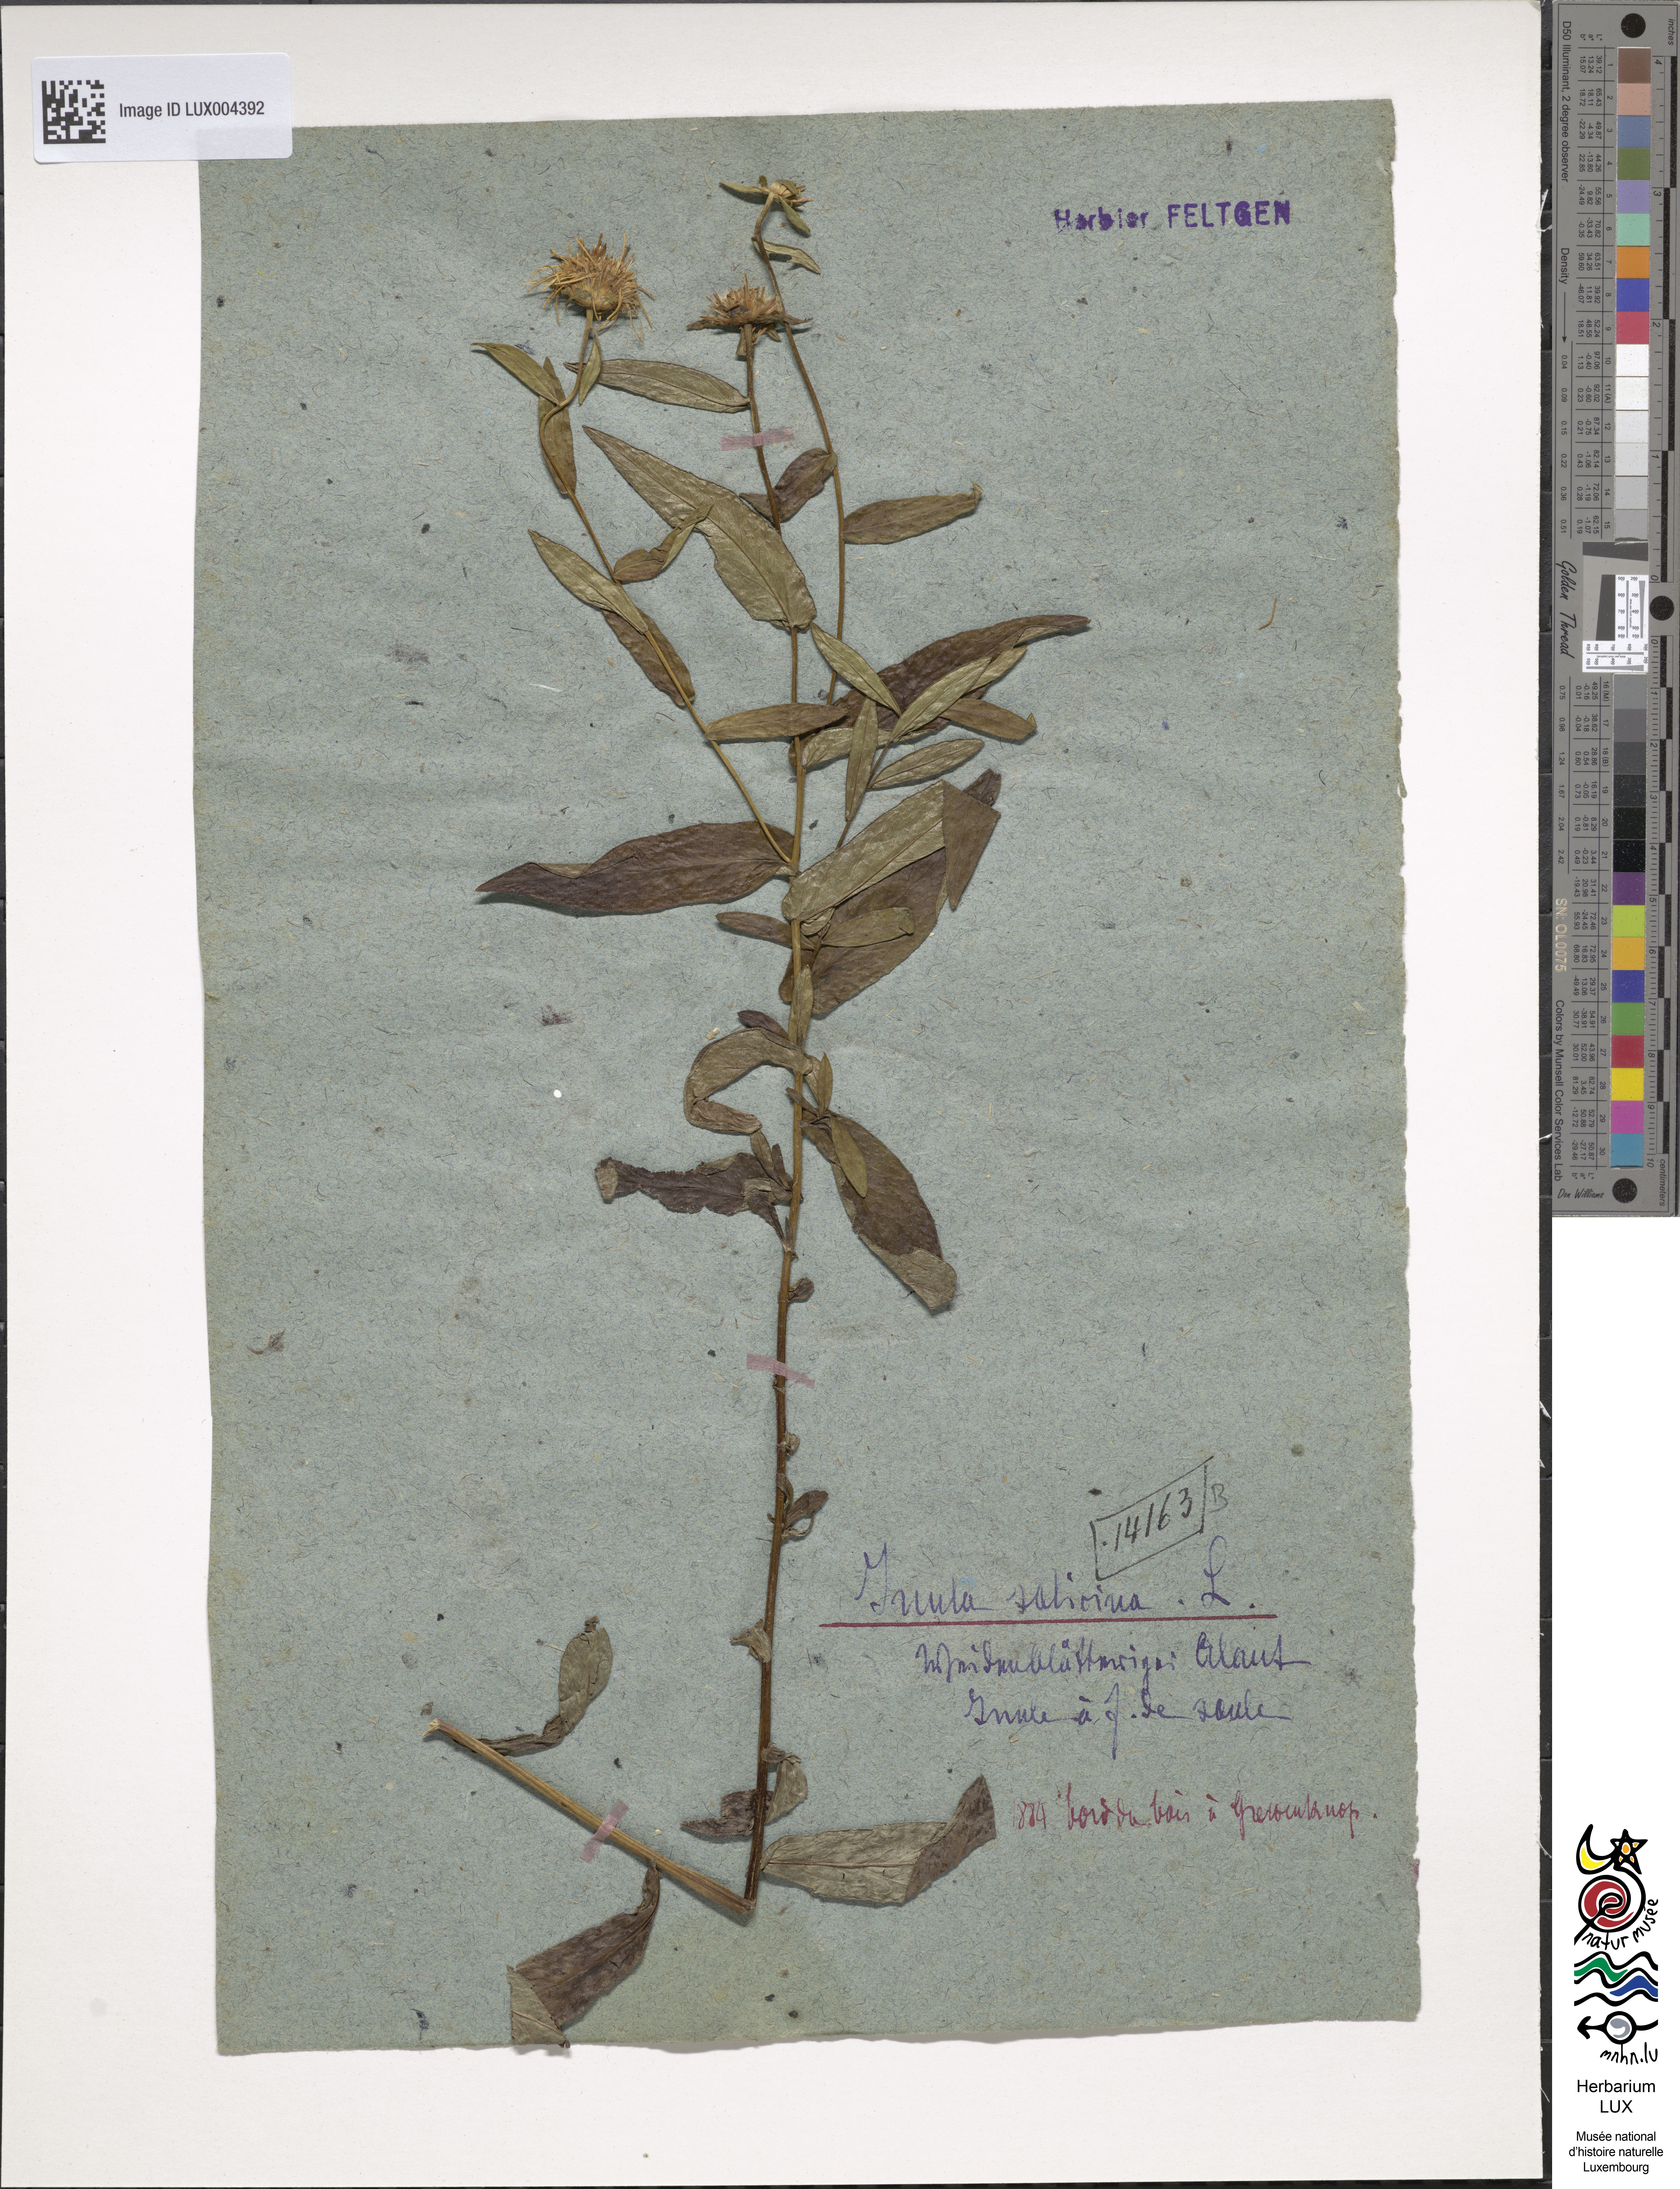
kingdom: Plantae
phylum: Tracheophyta
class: Magnoliopsida
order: Asterales
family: Asteraceae
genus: Pentanema
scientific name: Pentanema salicinum
